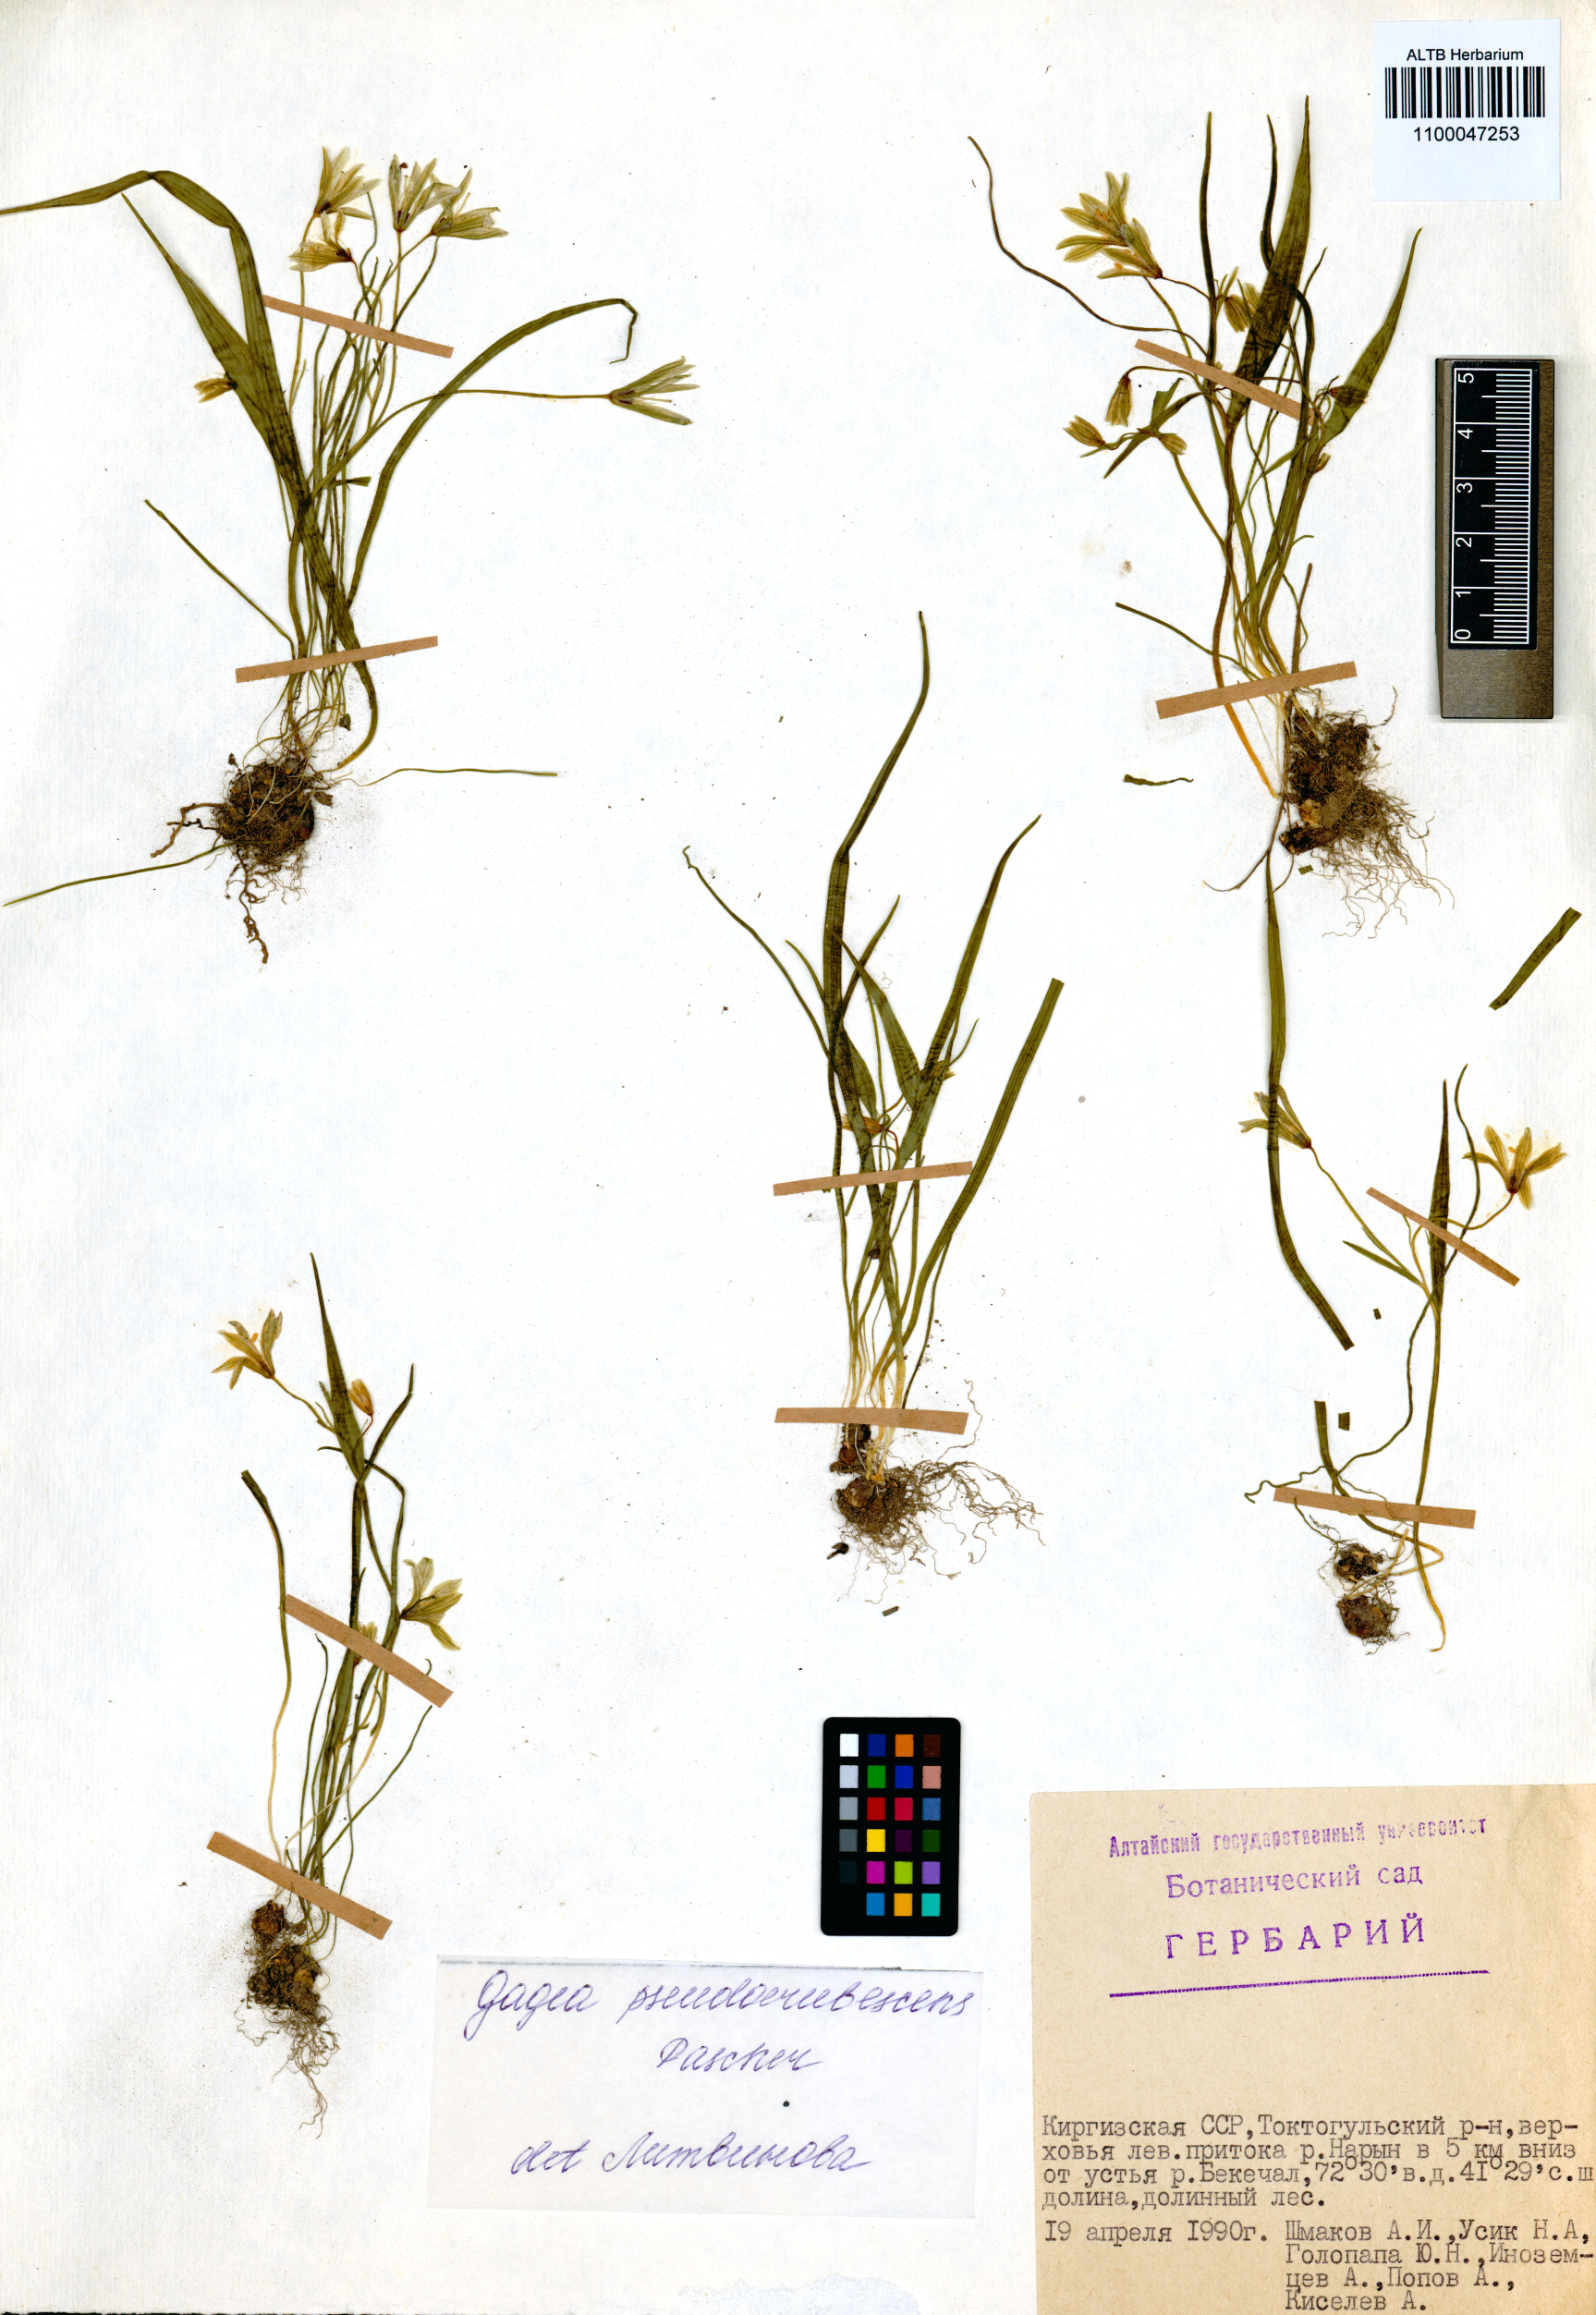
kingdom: Plantae
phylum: Tracheophyta
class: Liliopsida
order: Liliales
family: Liliaceae
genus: Gagea
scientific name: Gagea filiformis
